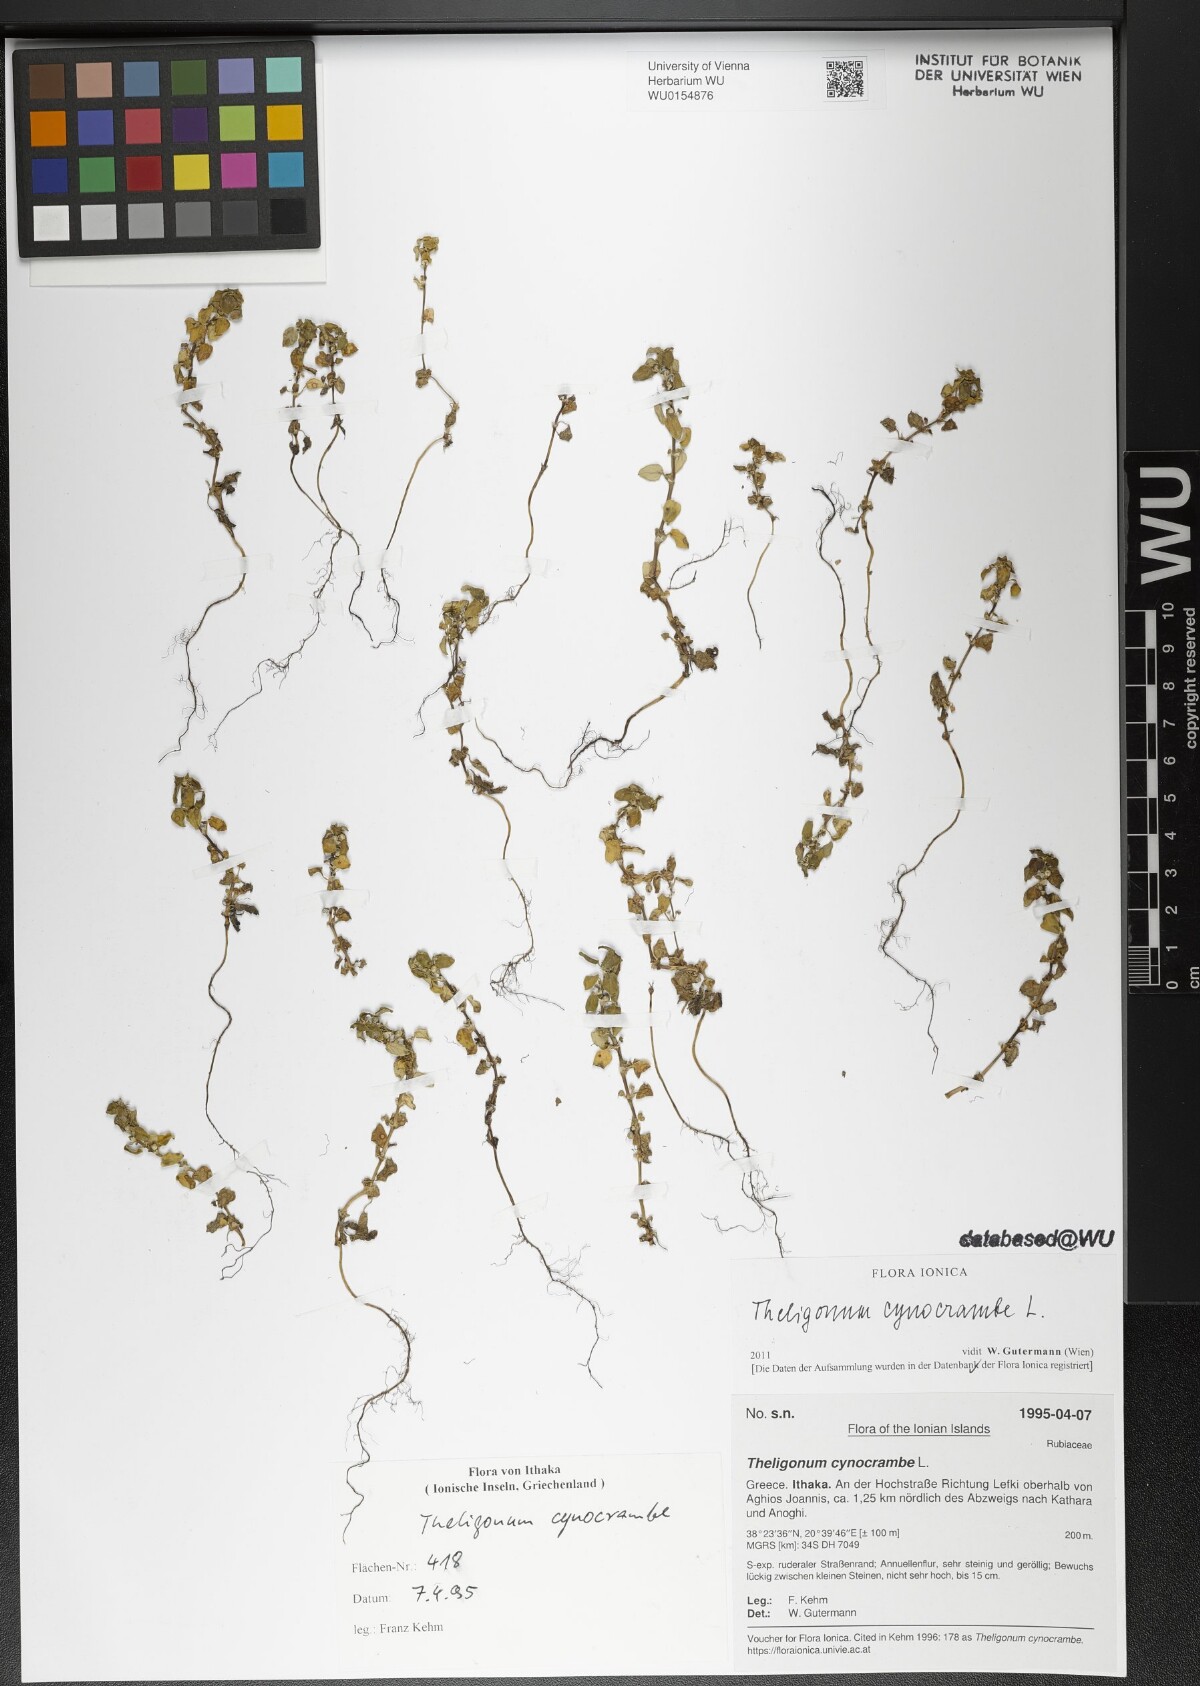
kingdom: Plantae
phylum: Tracheophyta
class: Magnoliopsida
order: Gentianales
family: Rubiaceae
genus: Theligonum
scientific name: Theligonum cynocrambe
